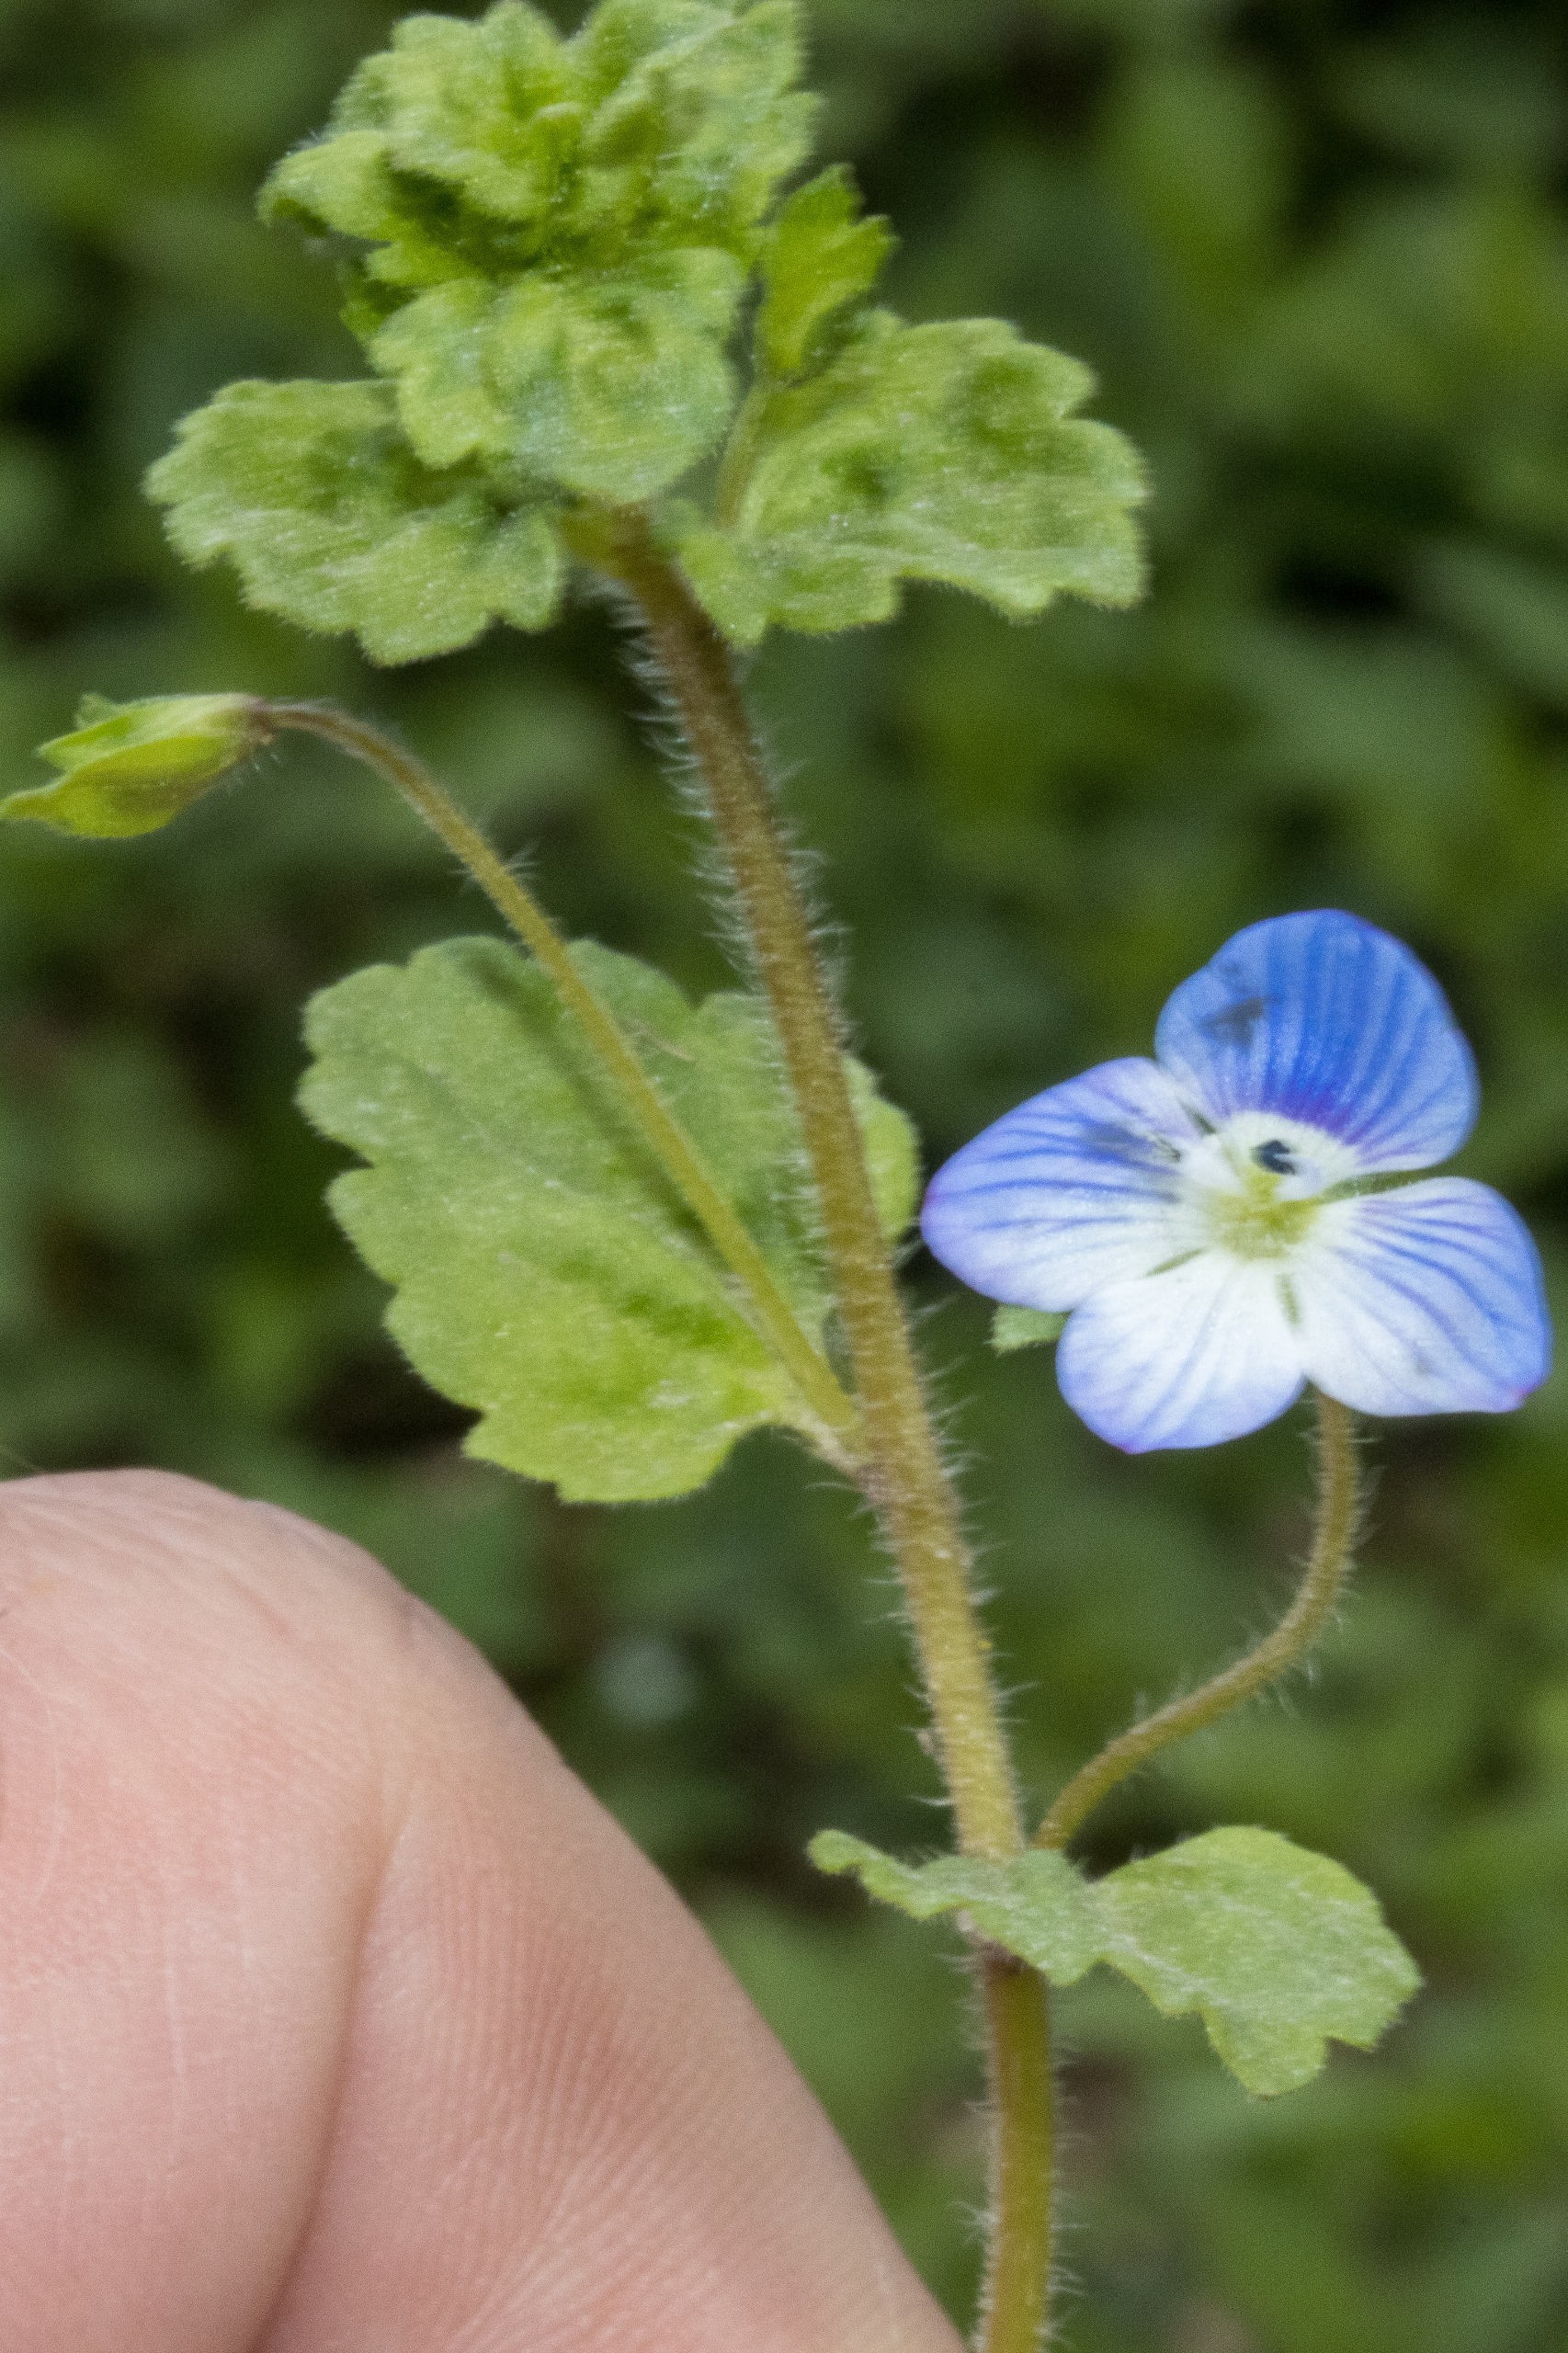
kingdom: Plantae
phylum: Tracheophyta
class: Magnoliopsida
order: Lamiales
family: Plantaginaceae
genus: Veronica
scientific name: Veronica persica
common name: Storkronet ærenpris
